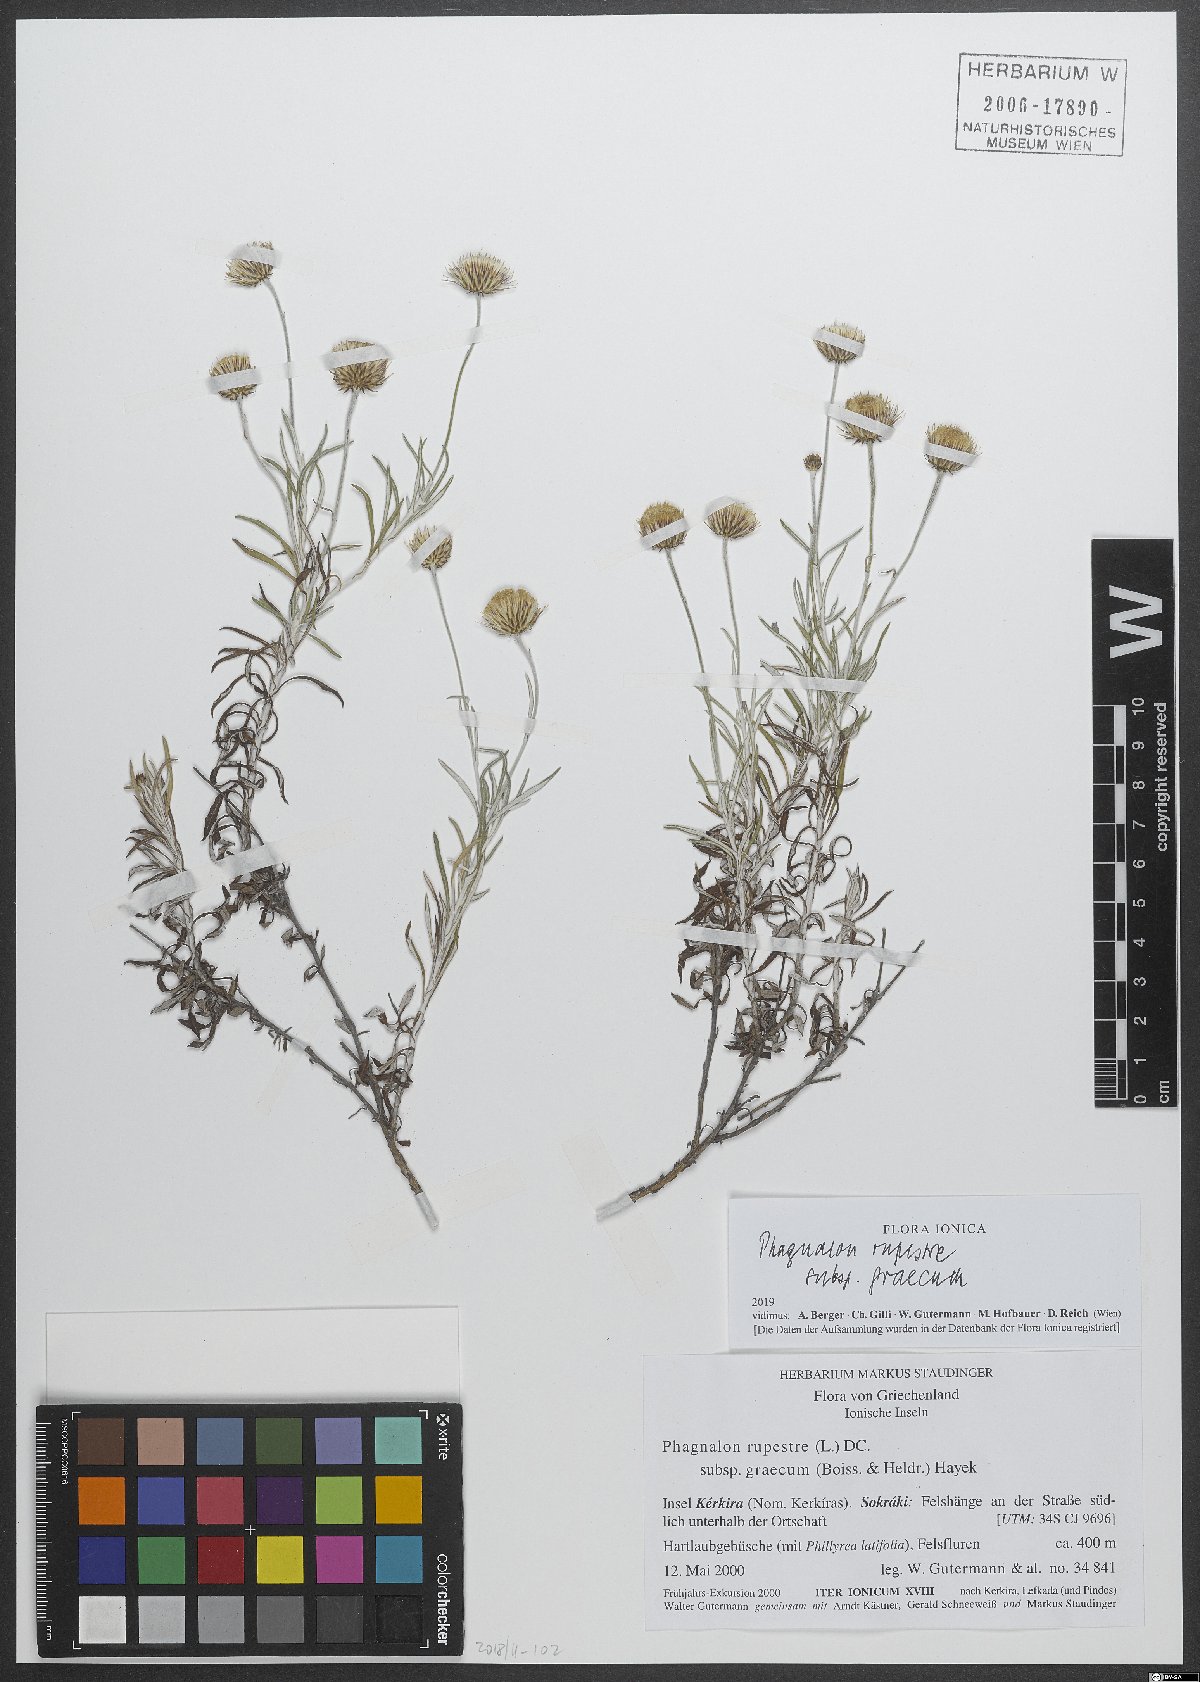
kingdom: Plantae
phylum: Tracheophyta
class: Magnoliopsida
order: Asterales
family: Asteraceae
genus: Phagnalon
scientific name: Phagnalon graecum
